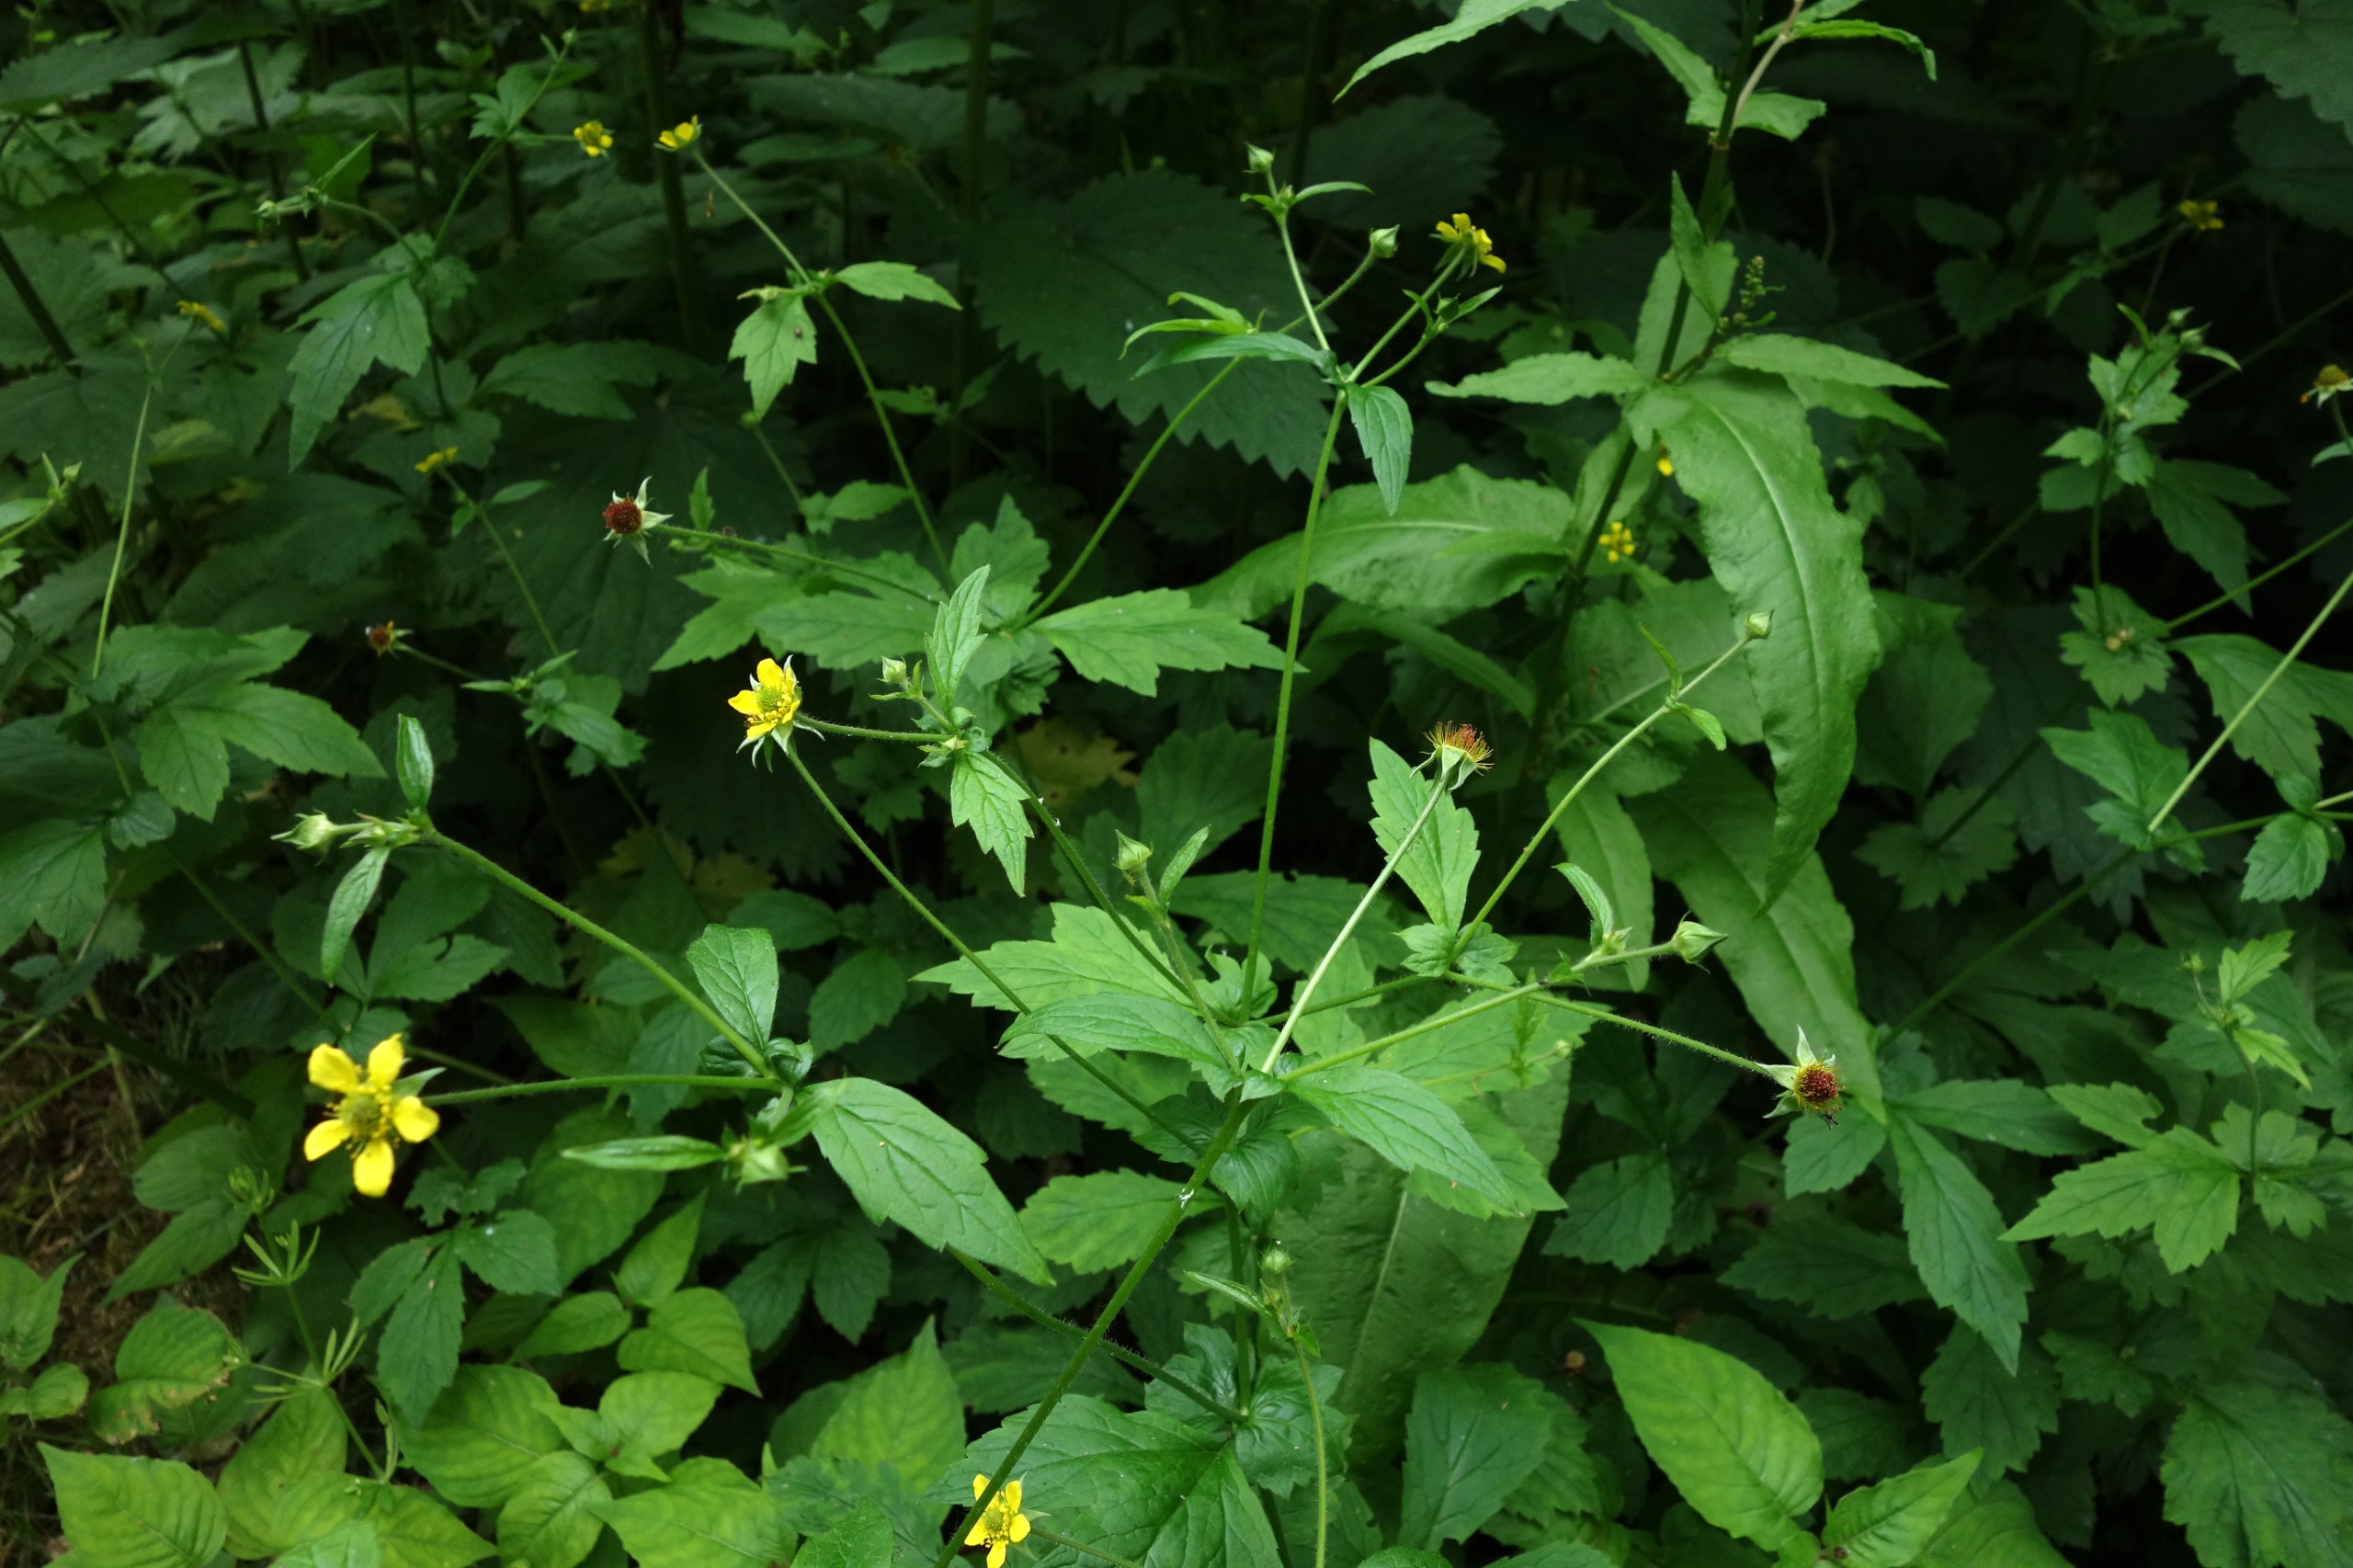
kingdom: Plantae
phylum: Tracheophyta
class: Magnoliopsida
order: Rosales
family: Rosaceae
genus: Geum
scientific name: Geum urbanum
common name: Feber-nellikerod
